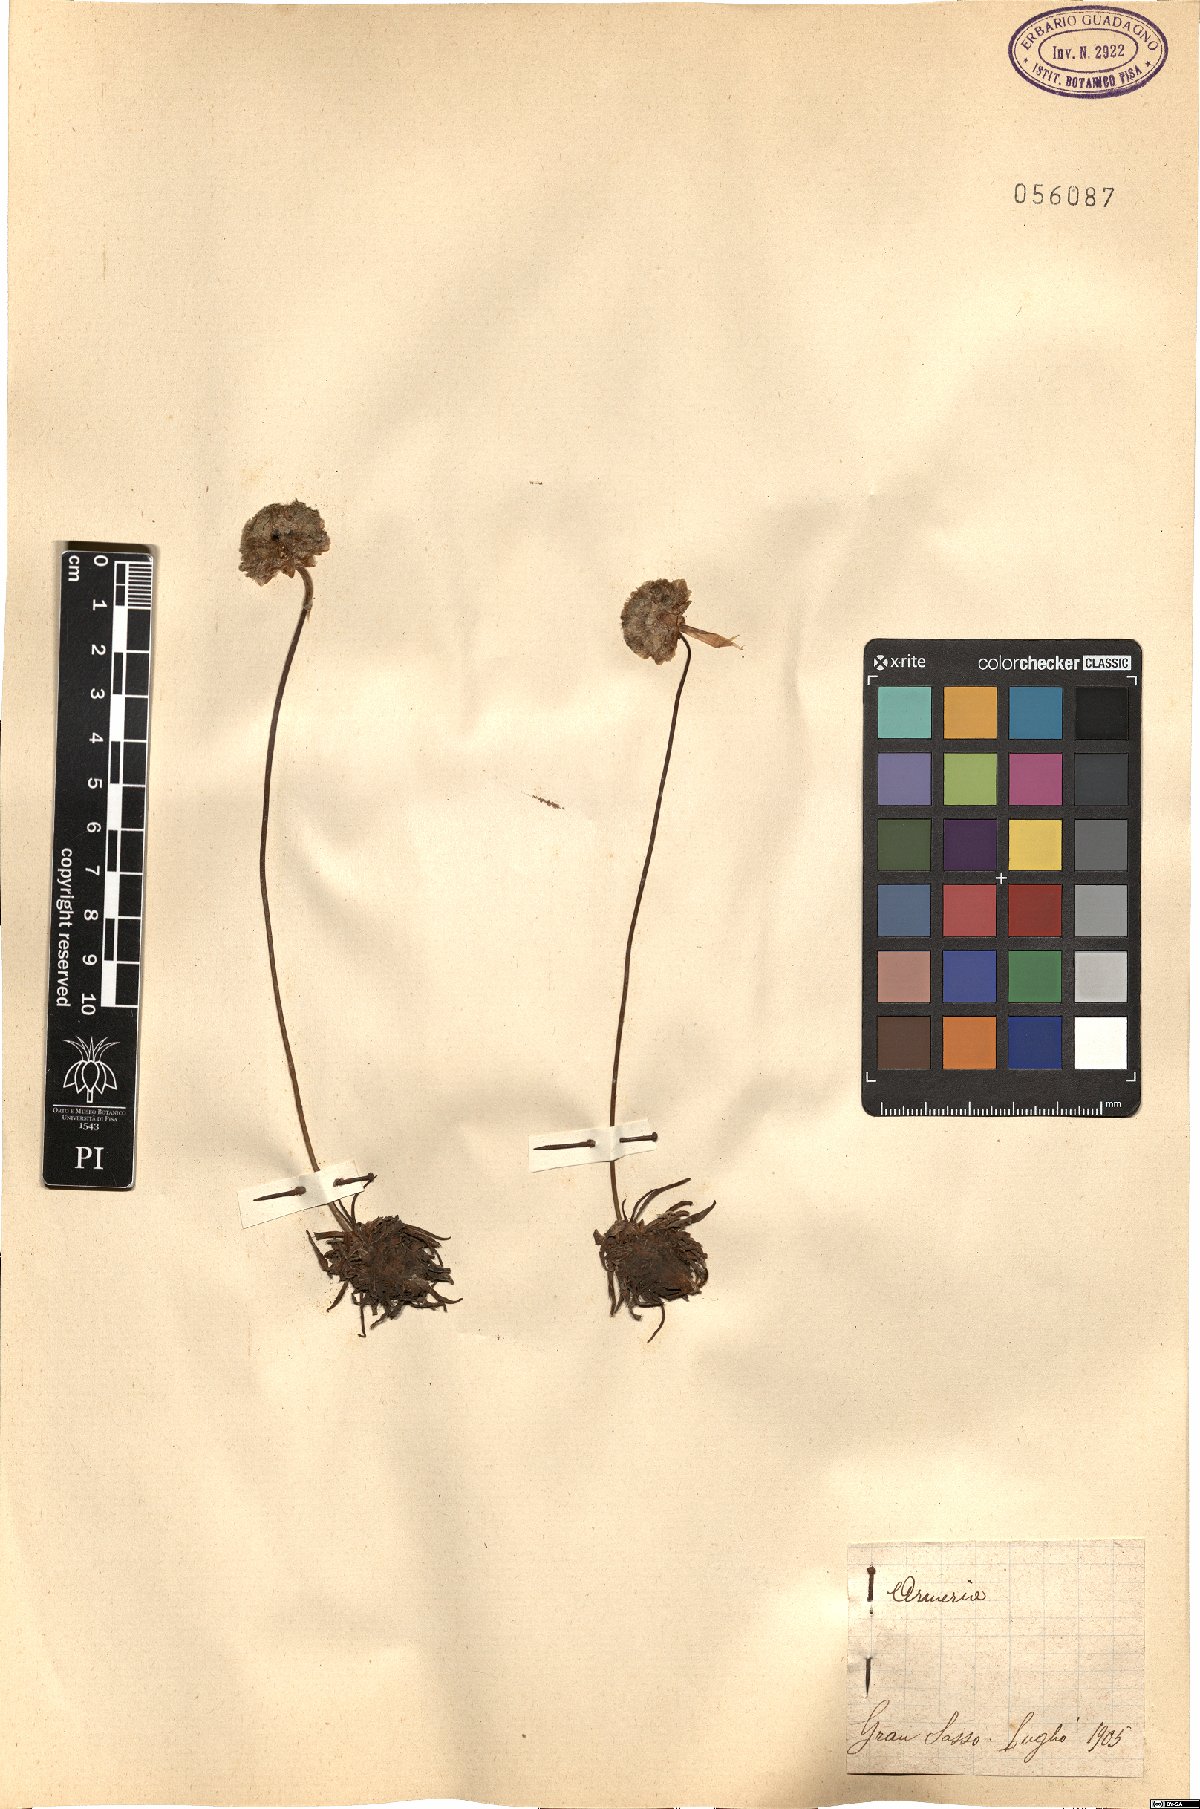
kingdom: Plantae
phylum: Tracheophyta
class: Magnoliopsida
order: Caryophyllales
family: Plumbaginaceae
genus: Armeria
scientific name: Armeria
